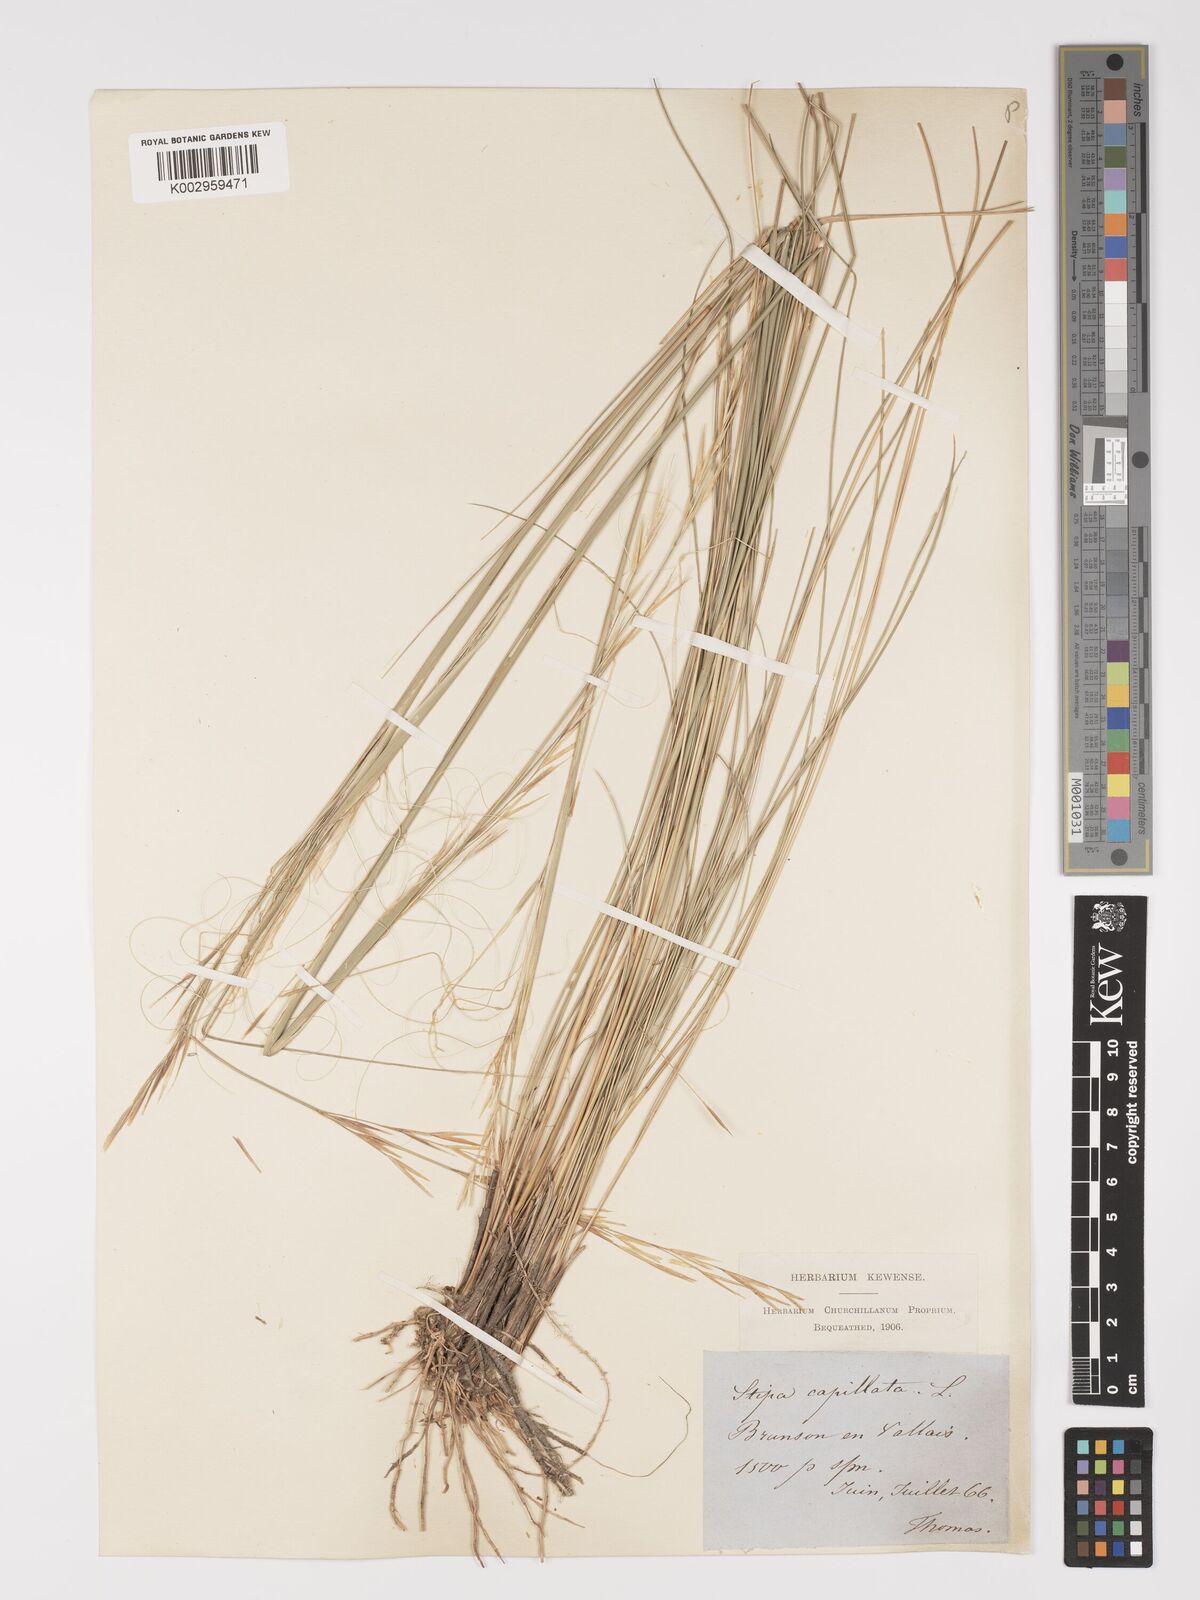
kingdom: Plantae
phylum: Tracheophyta
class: Liliopsida
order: Poales
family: Poaceae
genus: Stipa
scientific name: Stipa capillata
